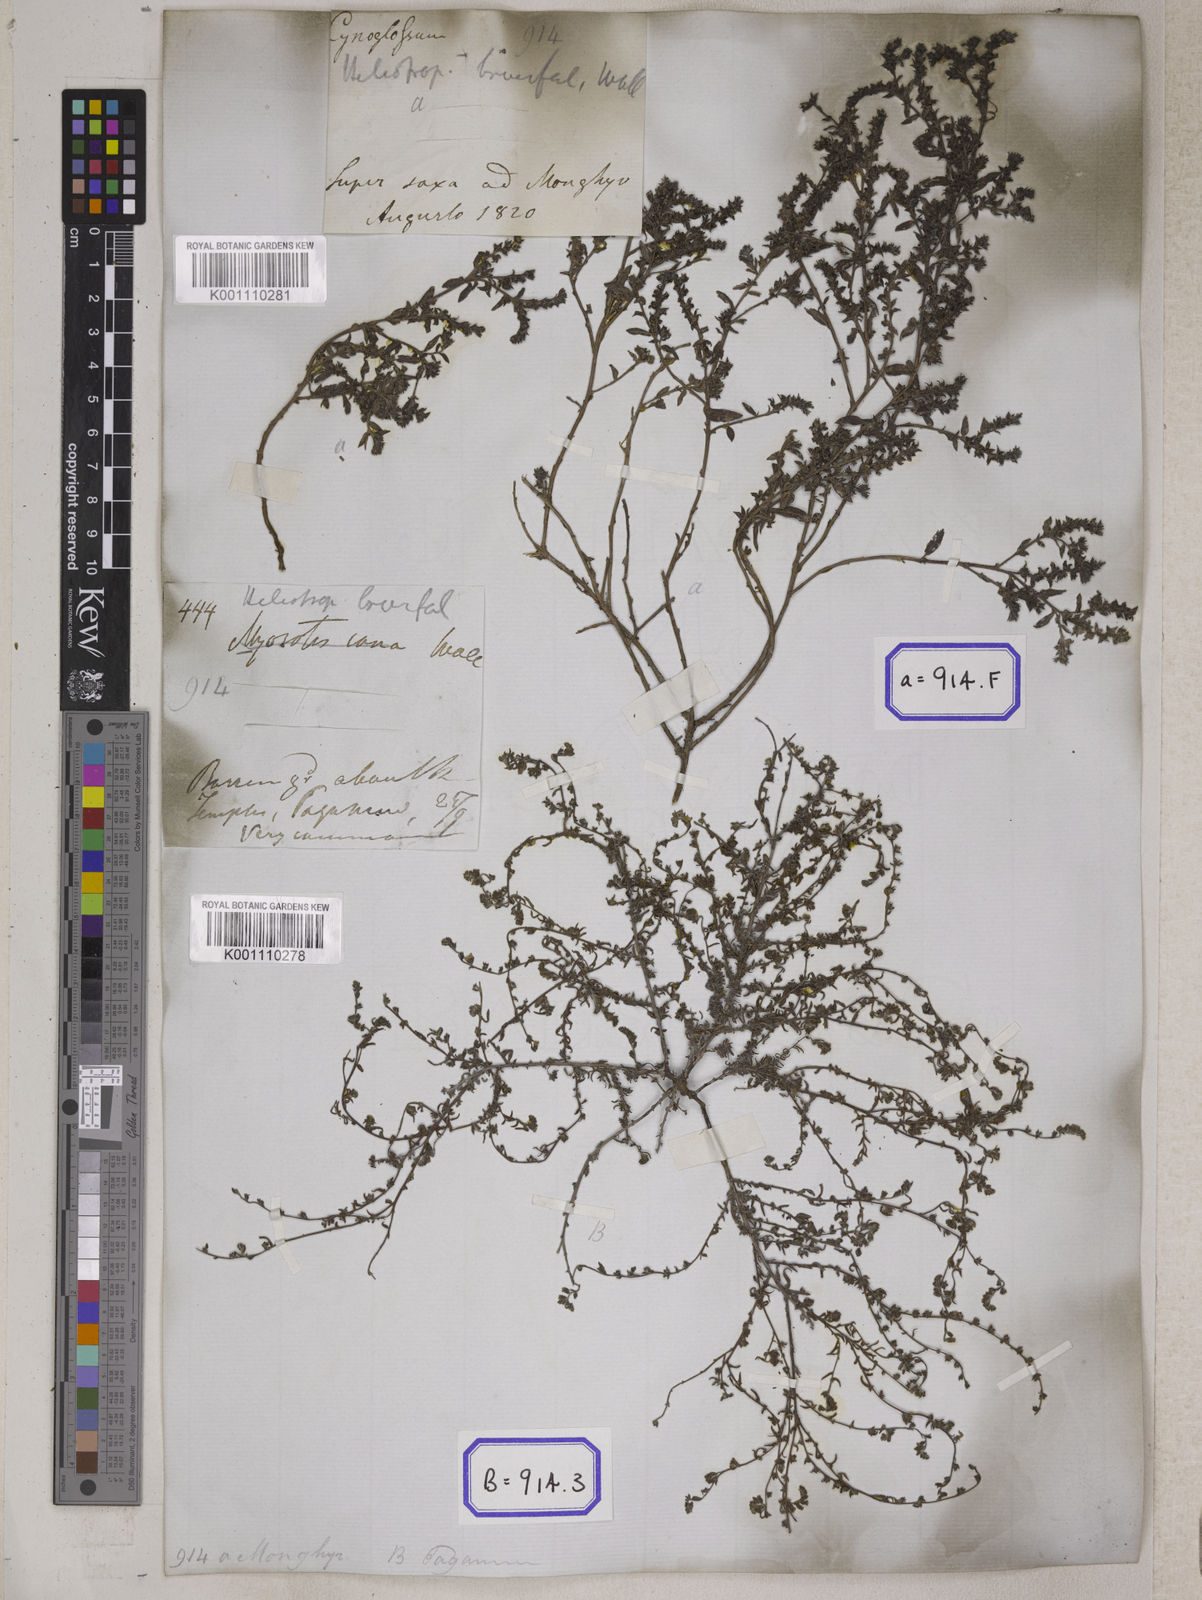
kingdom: Plantae
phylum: Tracheophyta
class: Magnoliopsida
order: Boraginales
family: Heliotropiaceae
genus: Euploca
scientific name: Euploca strigosa
